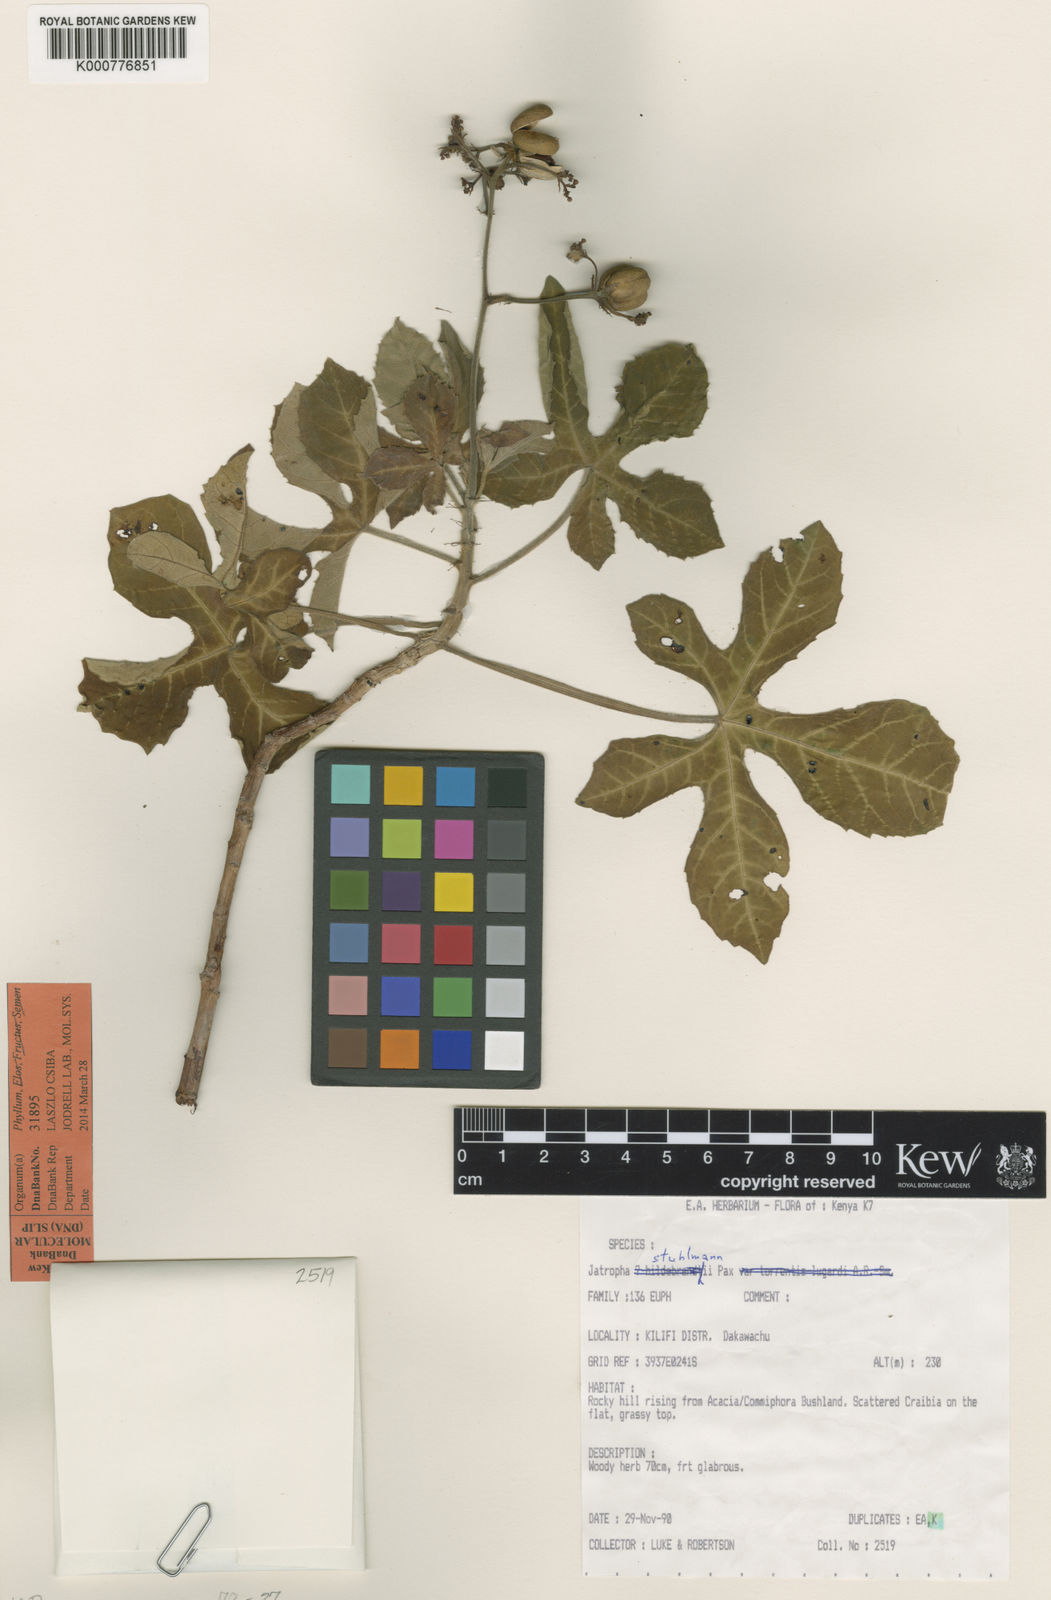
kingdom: Plantae
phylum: Tracheophyta
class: Magnoliopsida
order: Malpighiales
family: Euphorbiaceae
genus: Jatropha
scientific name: Jatropha stuhlmannii
